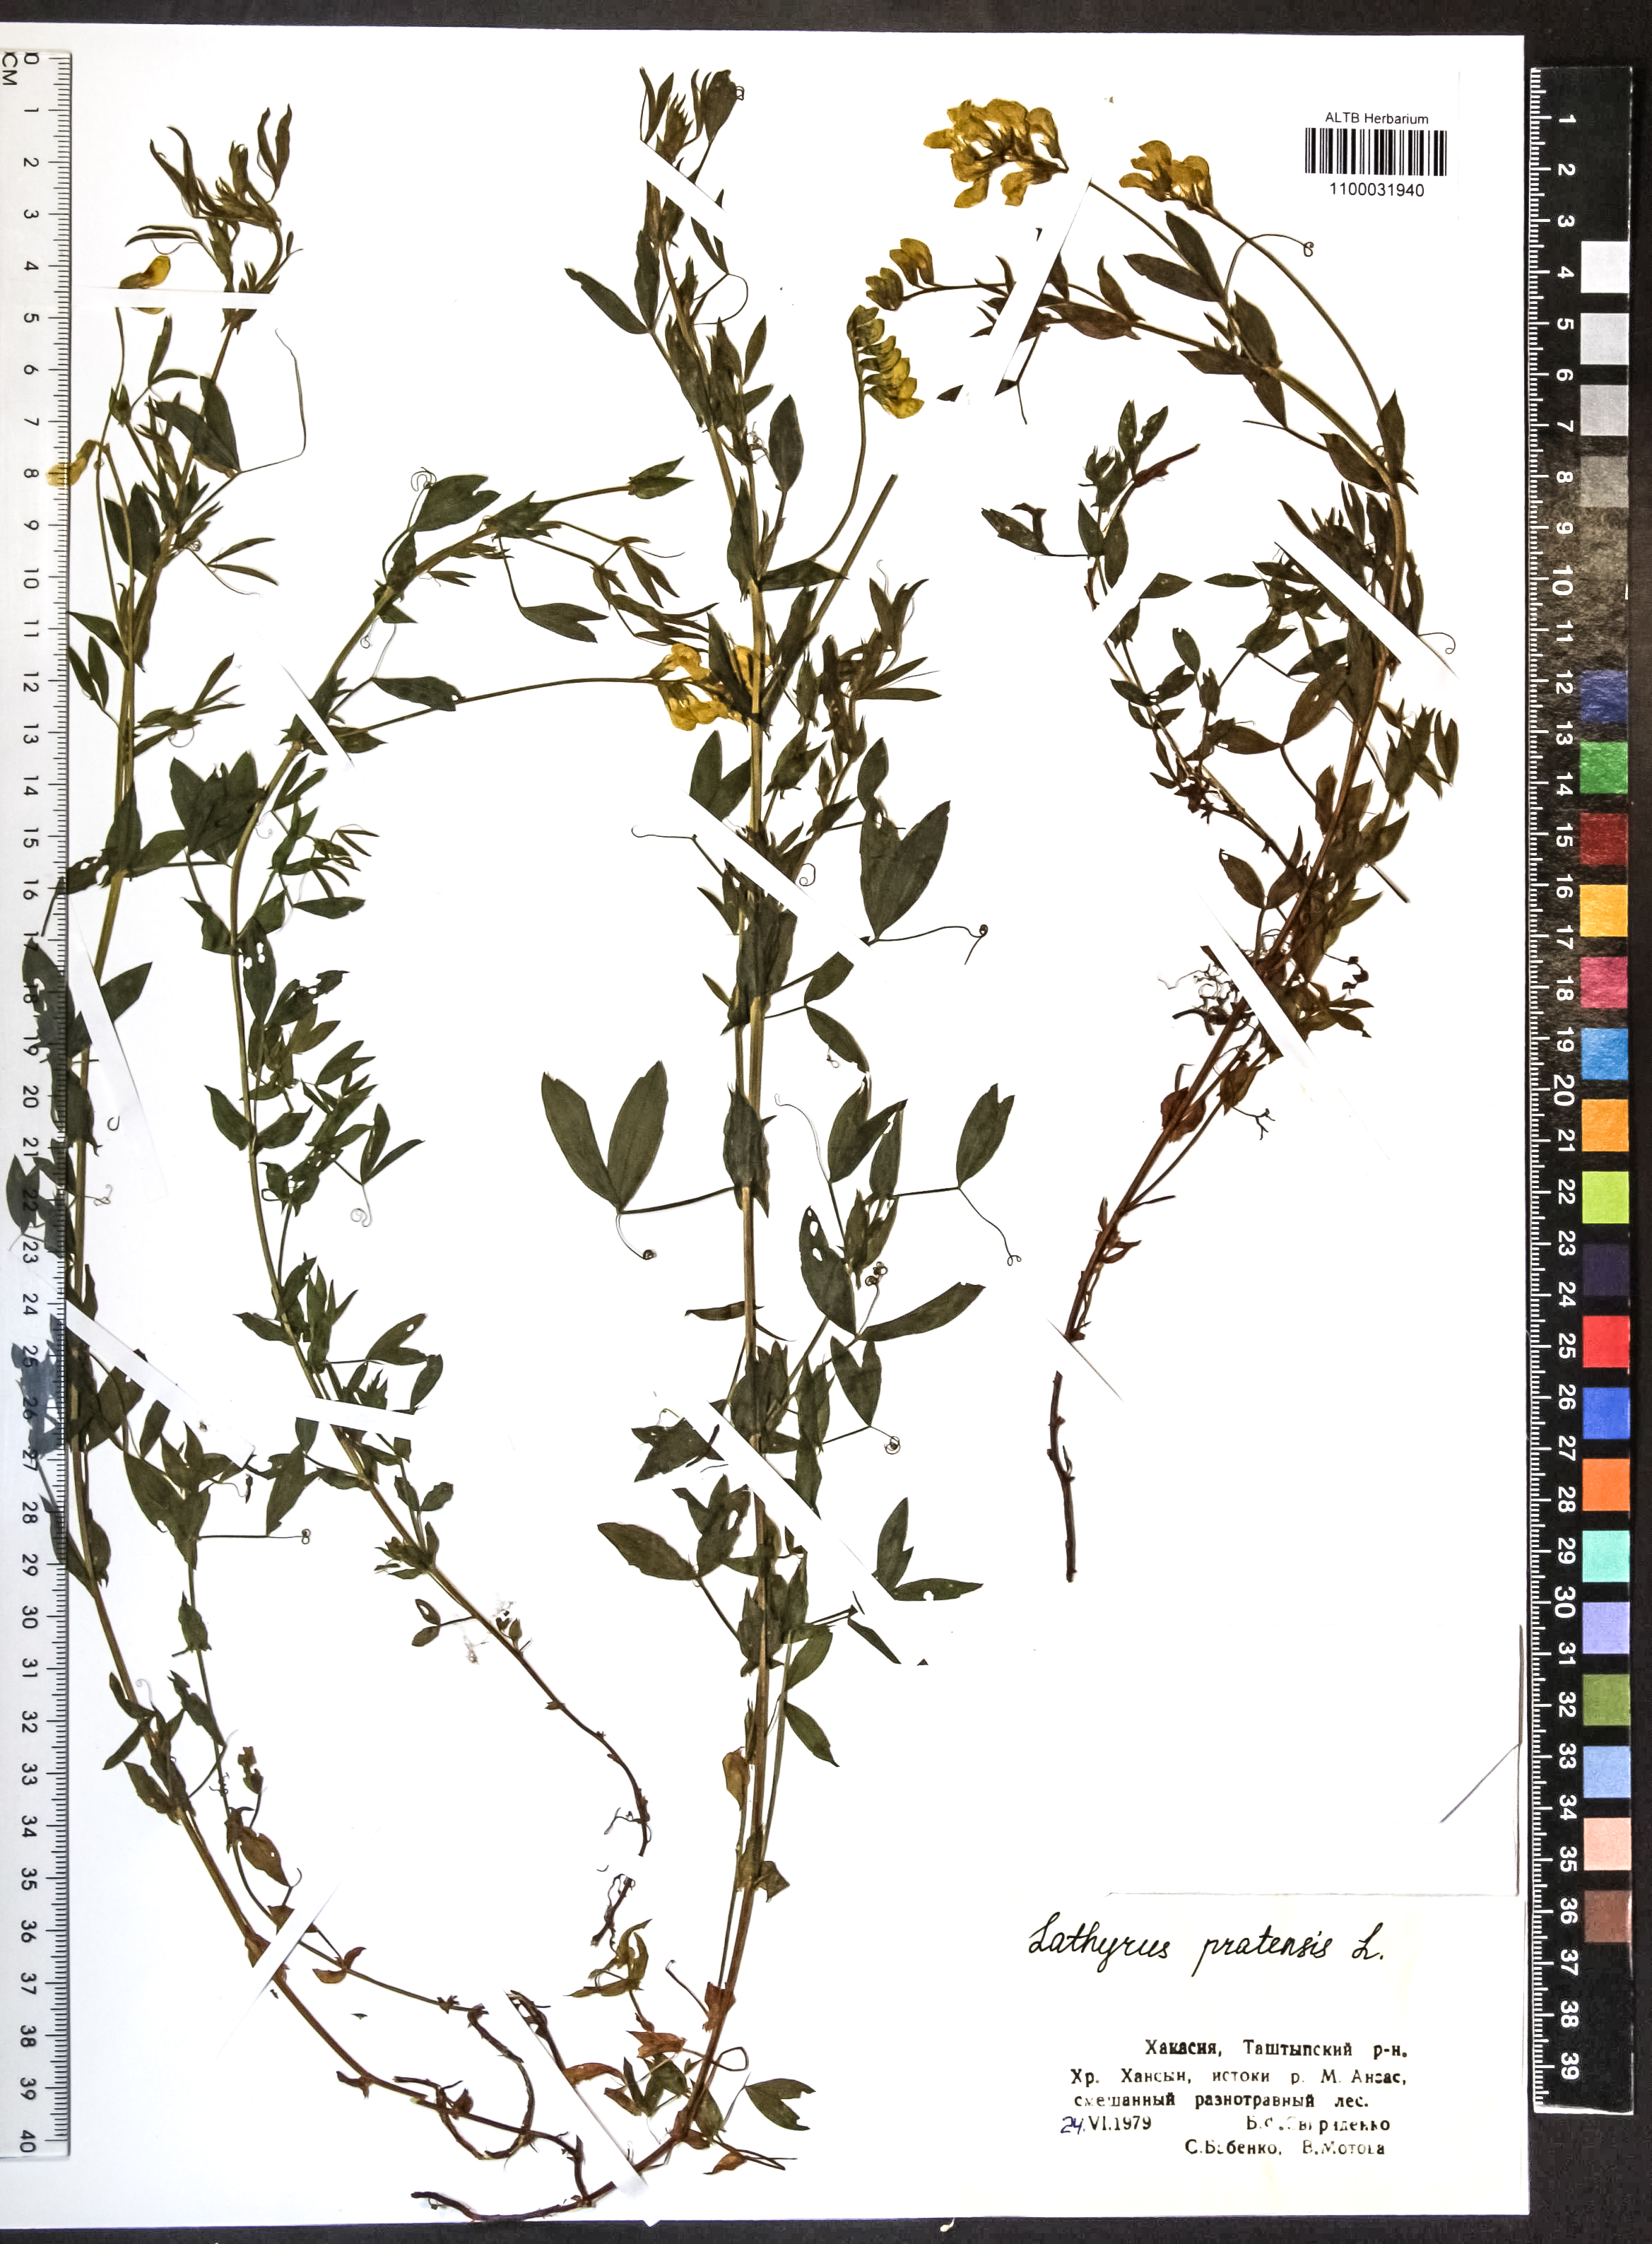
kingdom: Plantae
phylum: Tracheophyta
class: Magnoliopsida
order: Fabales
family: Fabaceae
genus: Lathyrus
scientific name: Lathyrus pratensis
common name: Meadow vetchling
